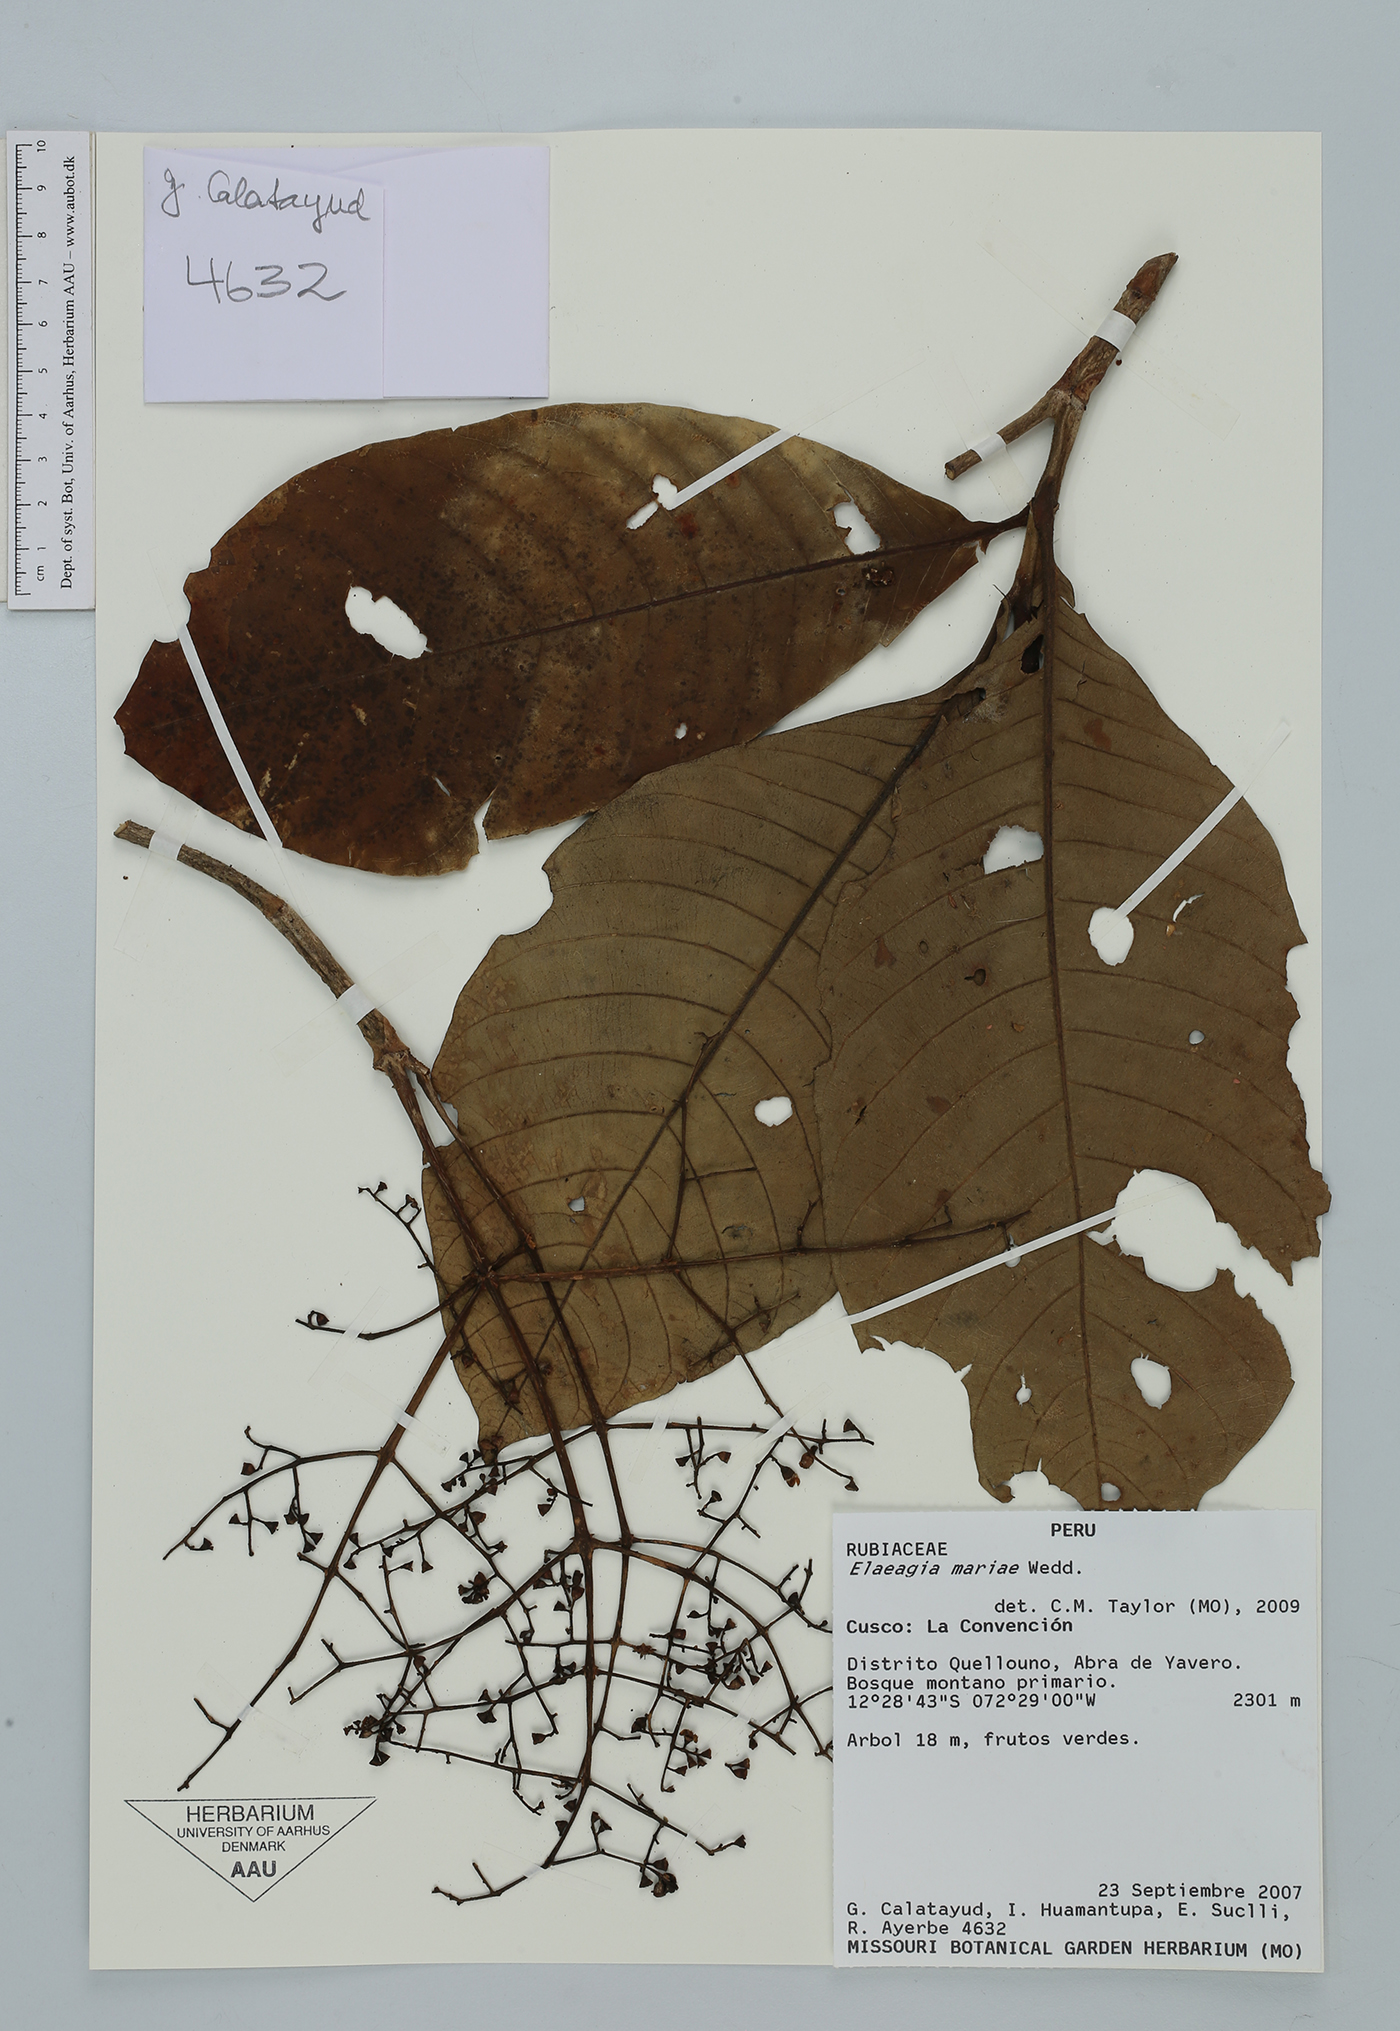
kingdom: Plantae
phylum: Tracheophyta
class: Magnoliopsida
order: Gentianales
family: Rubiaceae
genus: Elaeagia
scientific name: Elaeagia mariae
